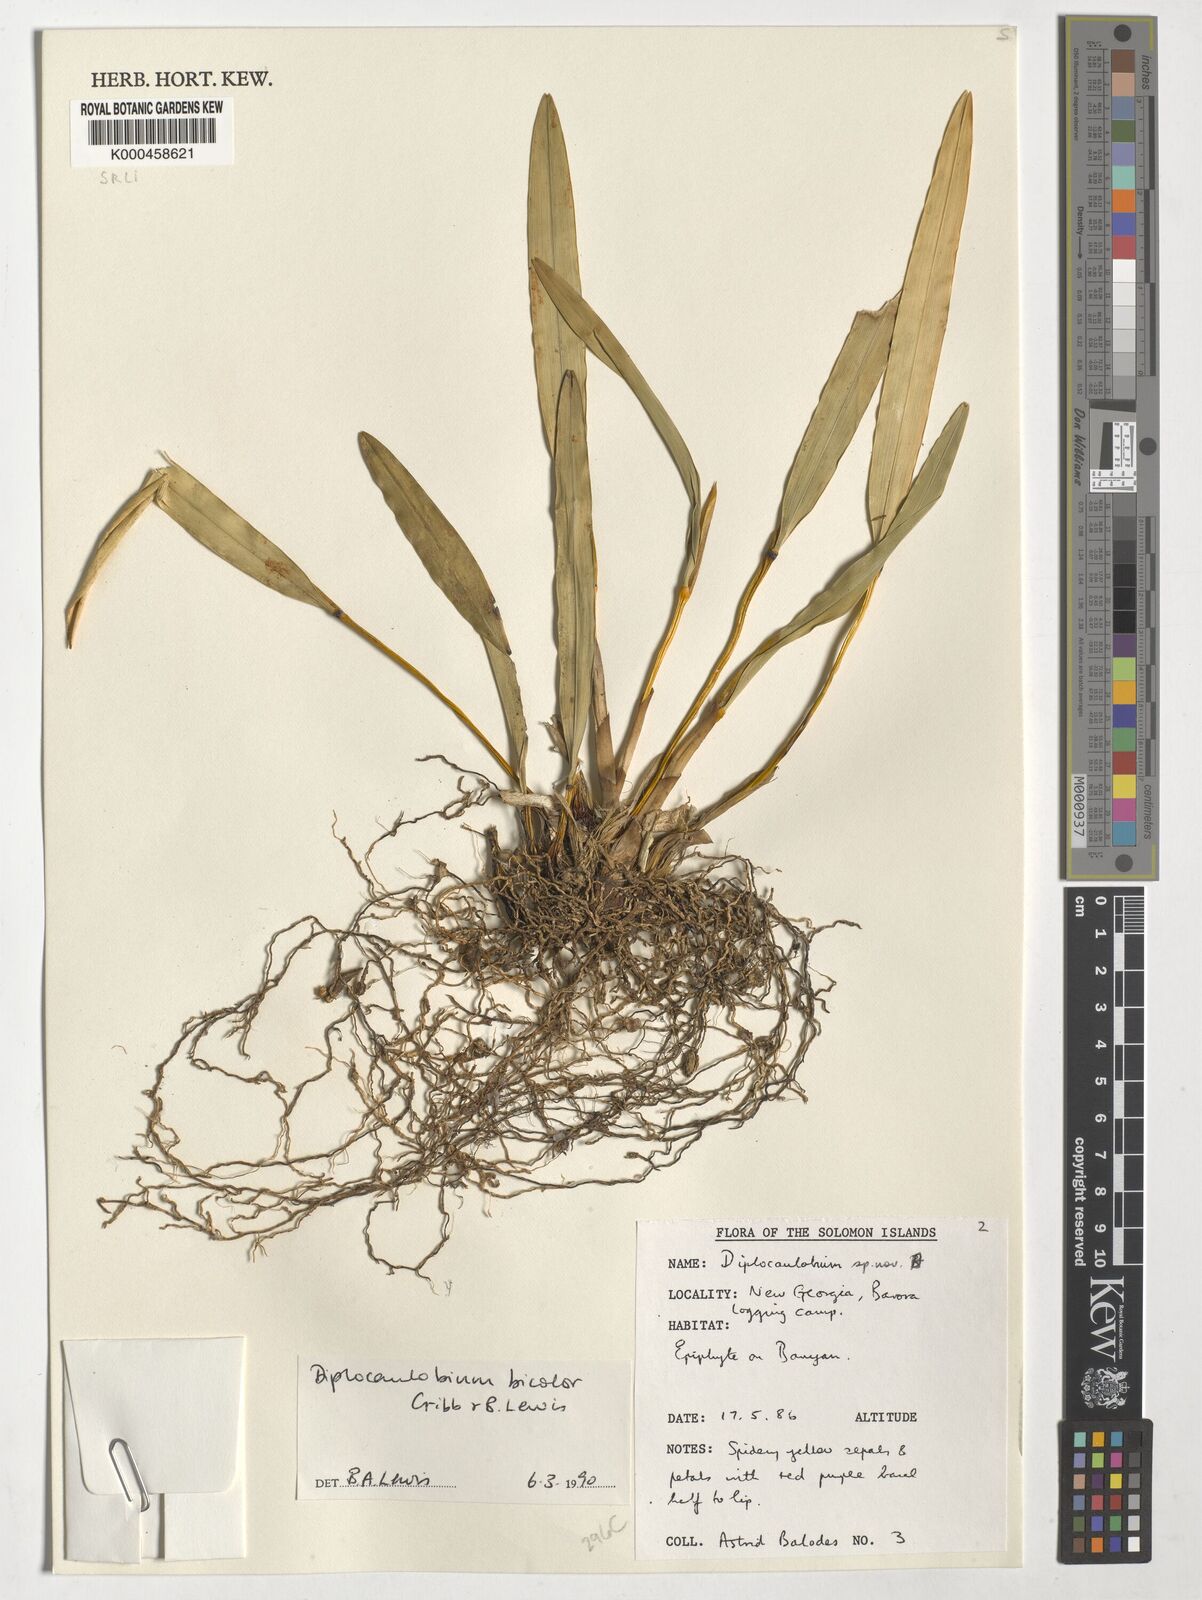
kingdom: Plantae
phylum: Tracheophyta
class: Liliopsida
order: Asparagales
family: Orchidaceae
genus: Dendrobium
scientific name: Dendrobium lewisiae
